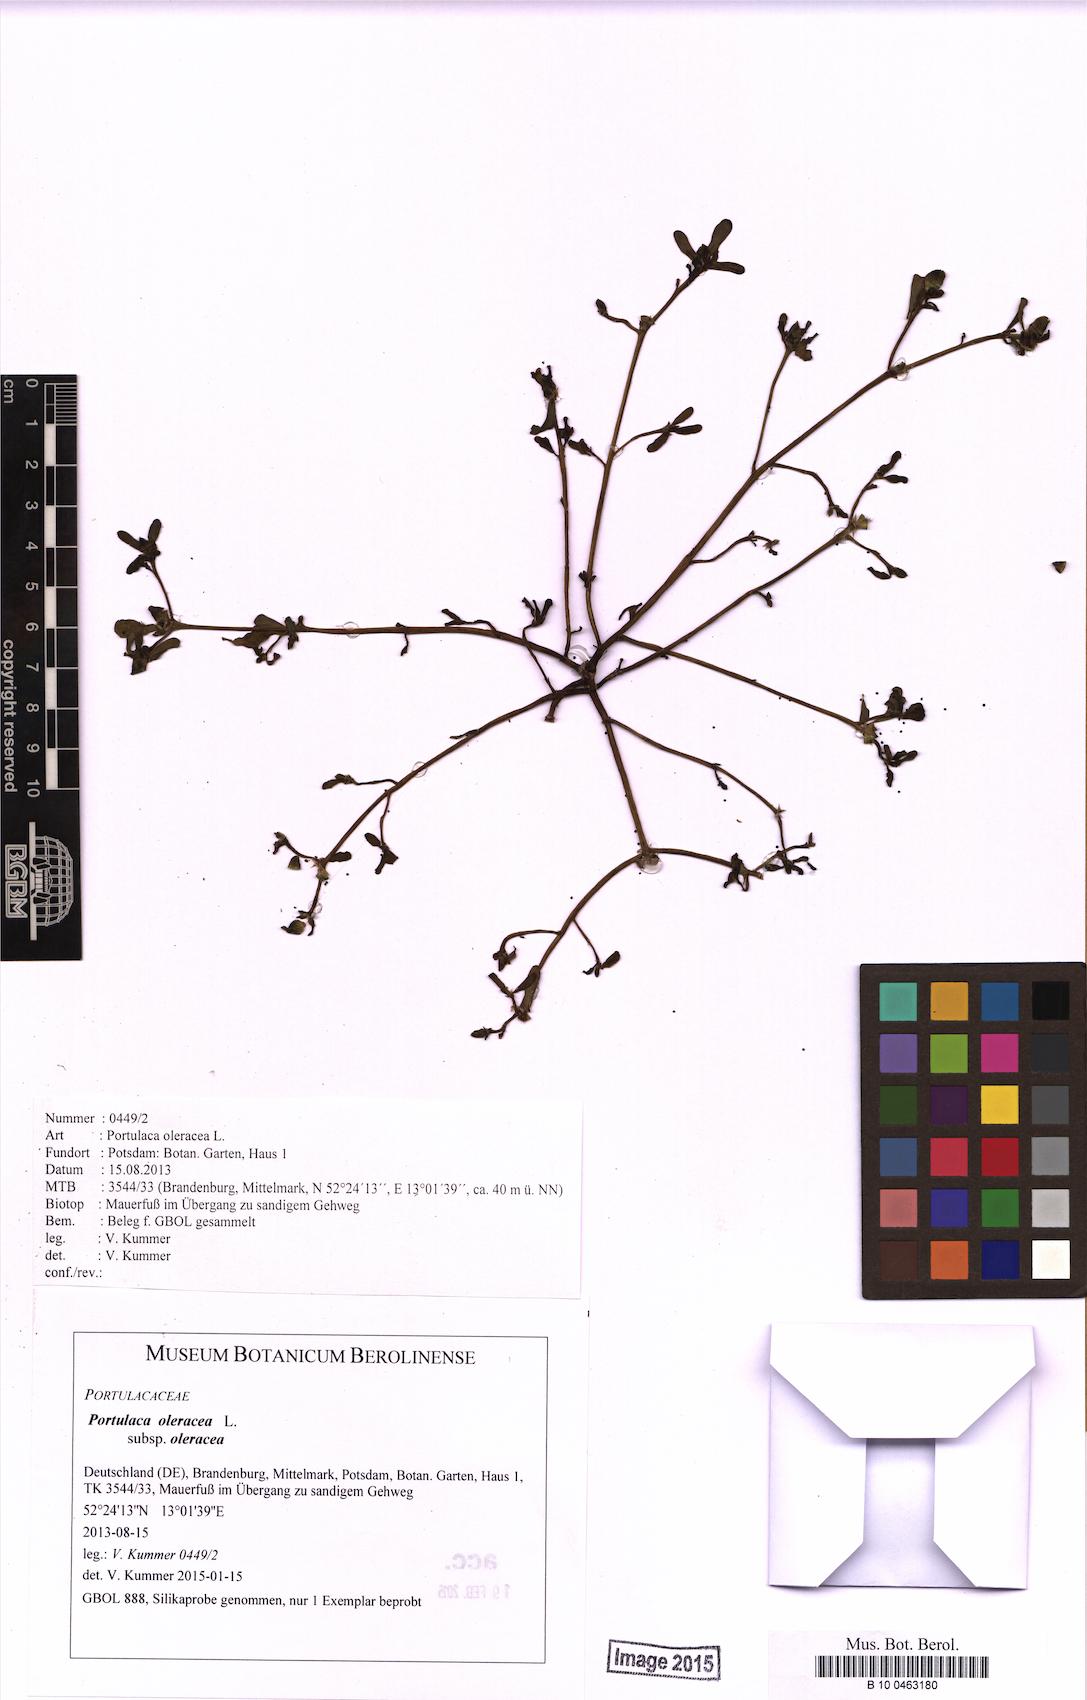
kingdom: Plantae
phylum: Tracheophyta
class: Magnoliopsida
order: Caryophyllales
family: Portulacaceae
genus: Portulaca
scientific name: Portulaca oleracea
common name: Common purslane
